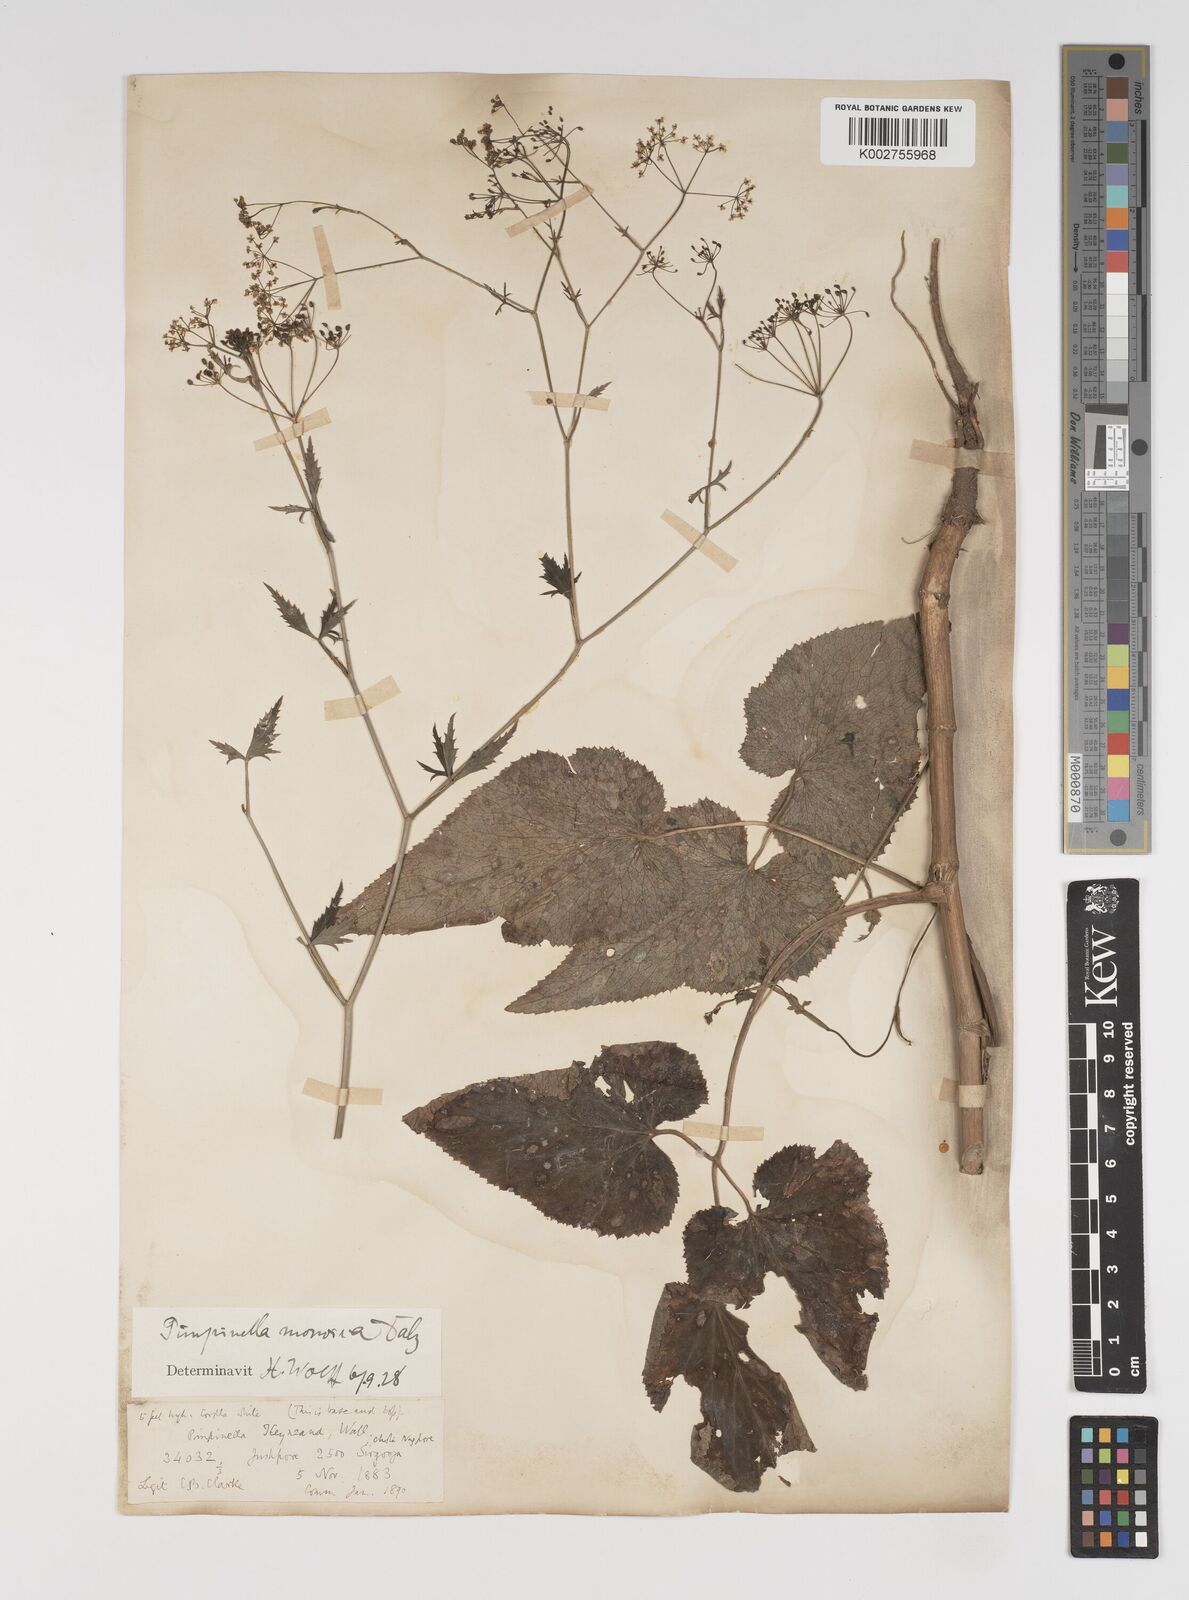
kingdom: Plantae
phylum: Tracheophyta
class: Magnoliopsida
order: Apiales
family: Apiaceae
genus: Pimpinella
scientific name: Pimpinella wallichiana
